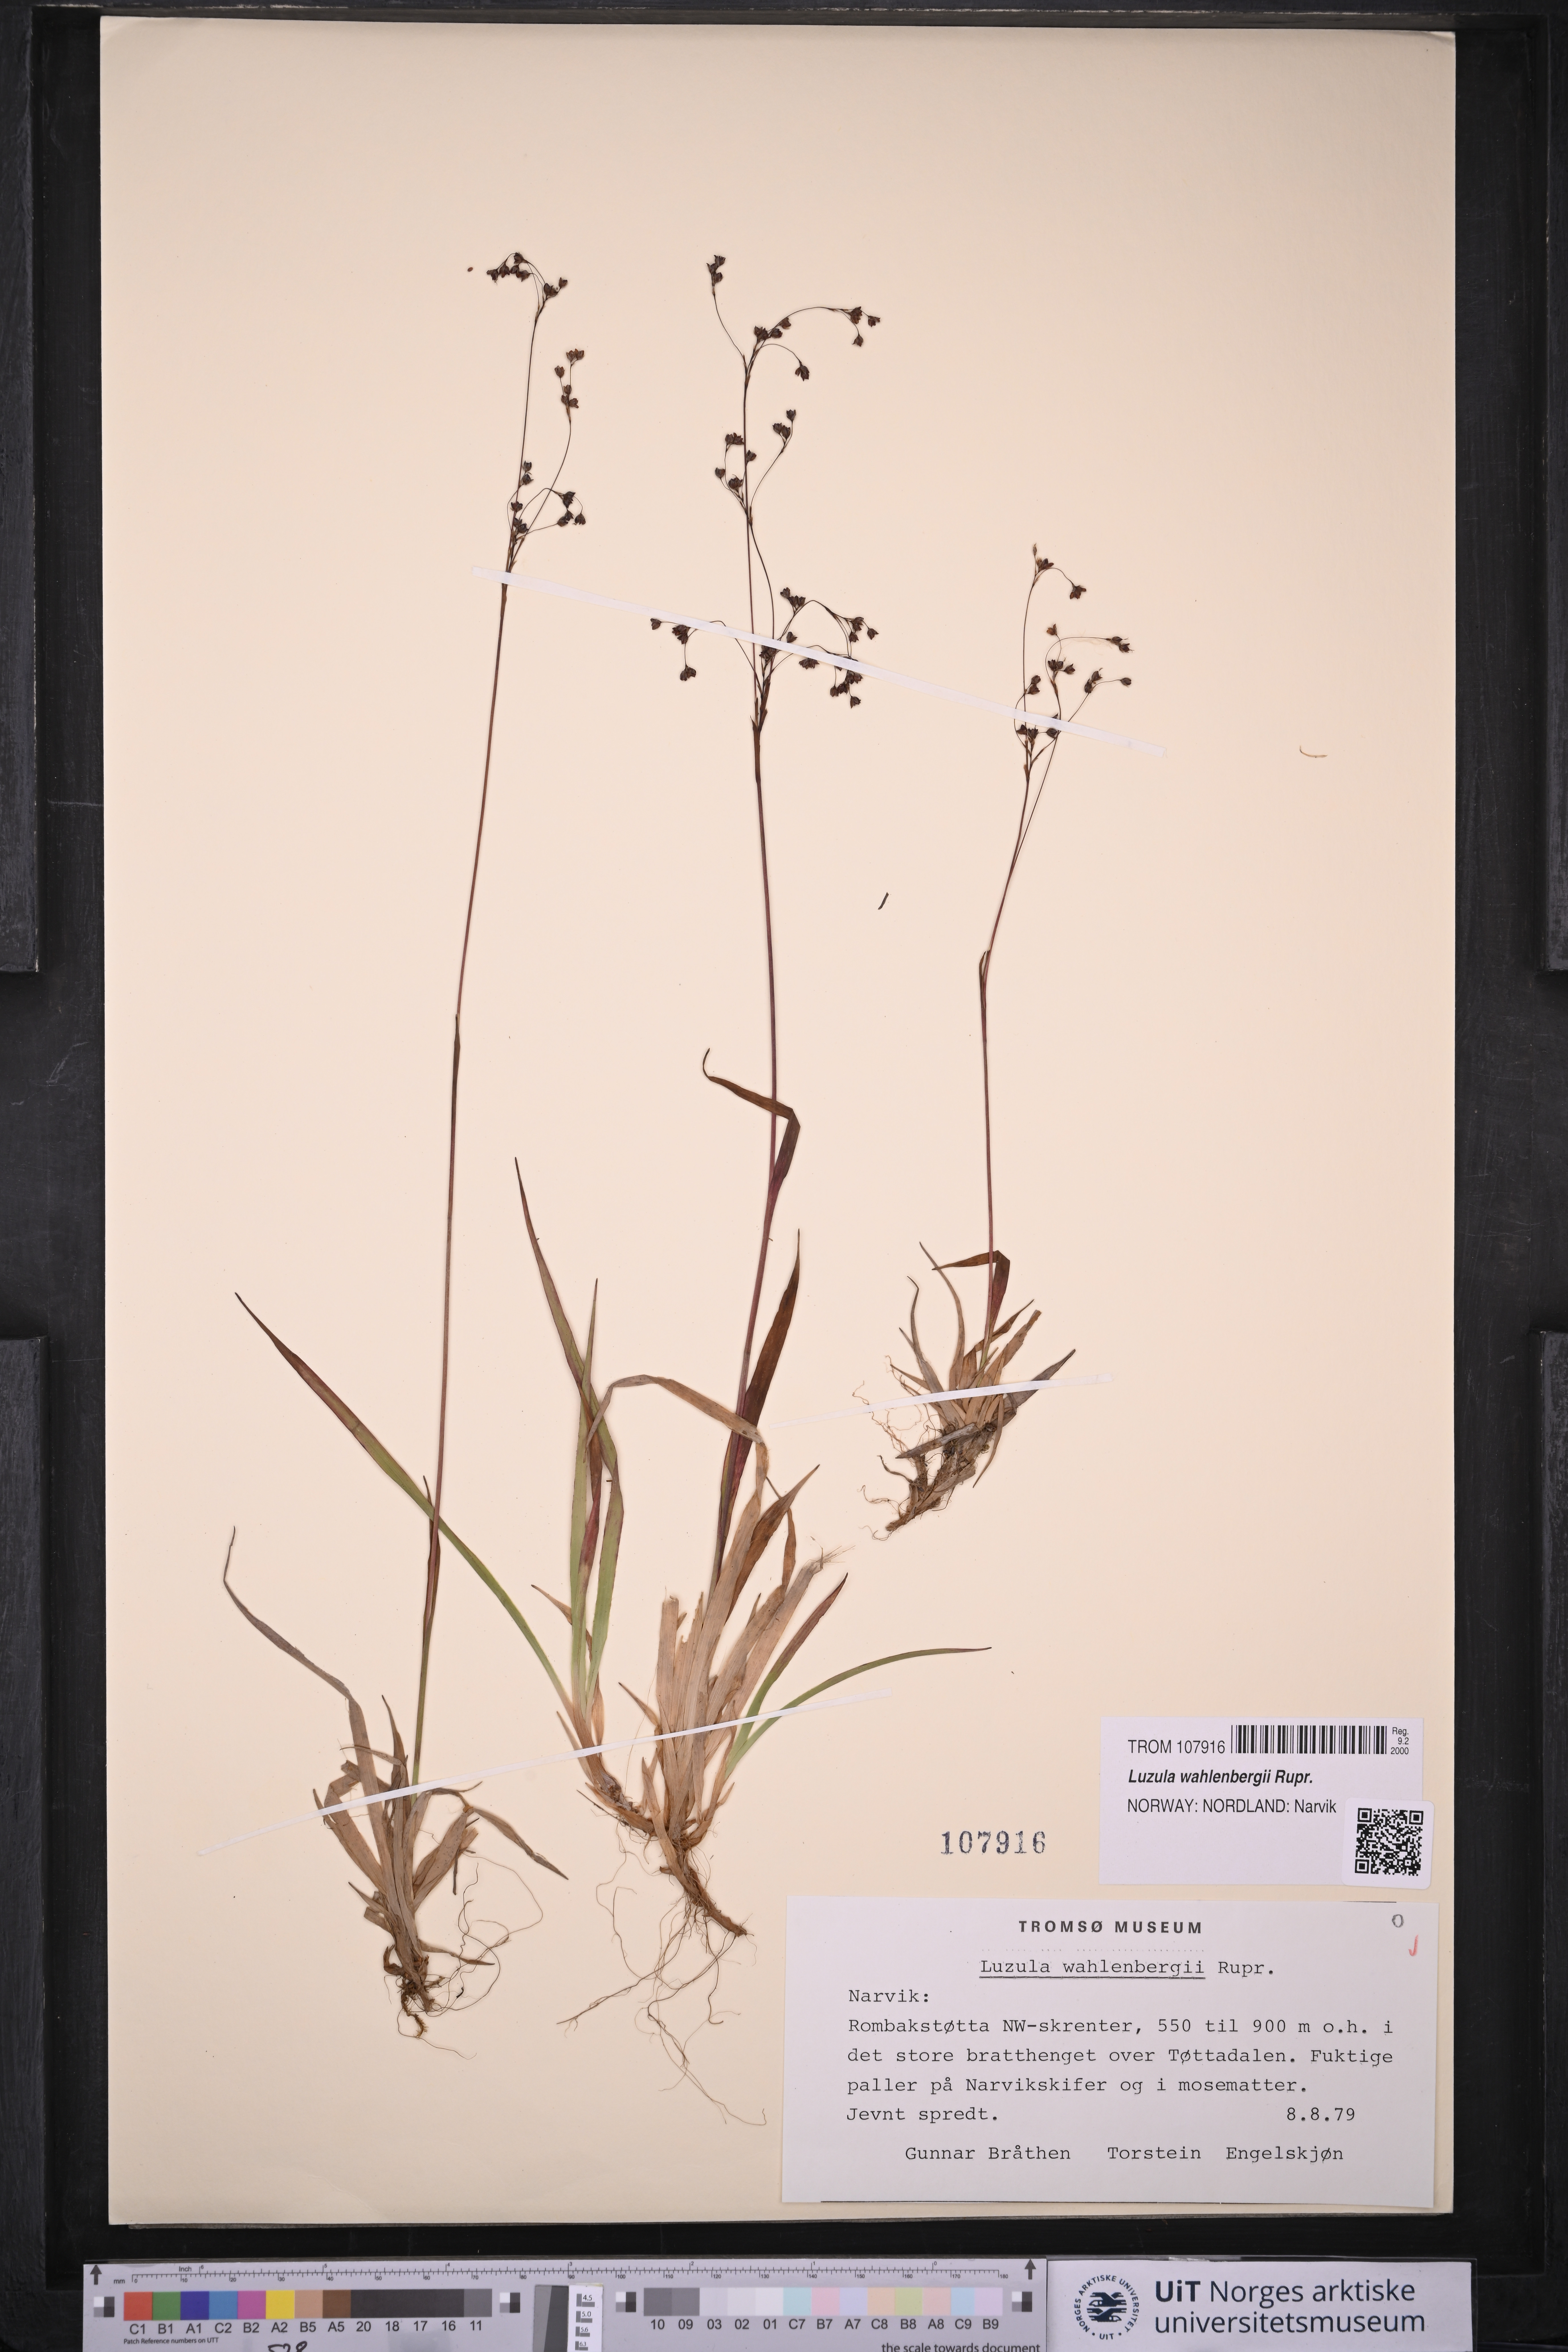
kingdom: Plantae
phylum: Tracheophyta
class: Liliopsida
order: Poales
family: Juncaceae
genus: Luzula
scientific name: Luzula wahlenbergii
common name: Wahlenberg's wood-rush
